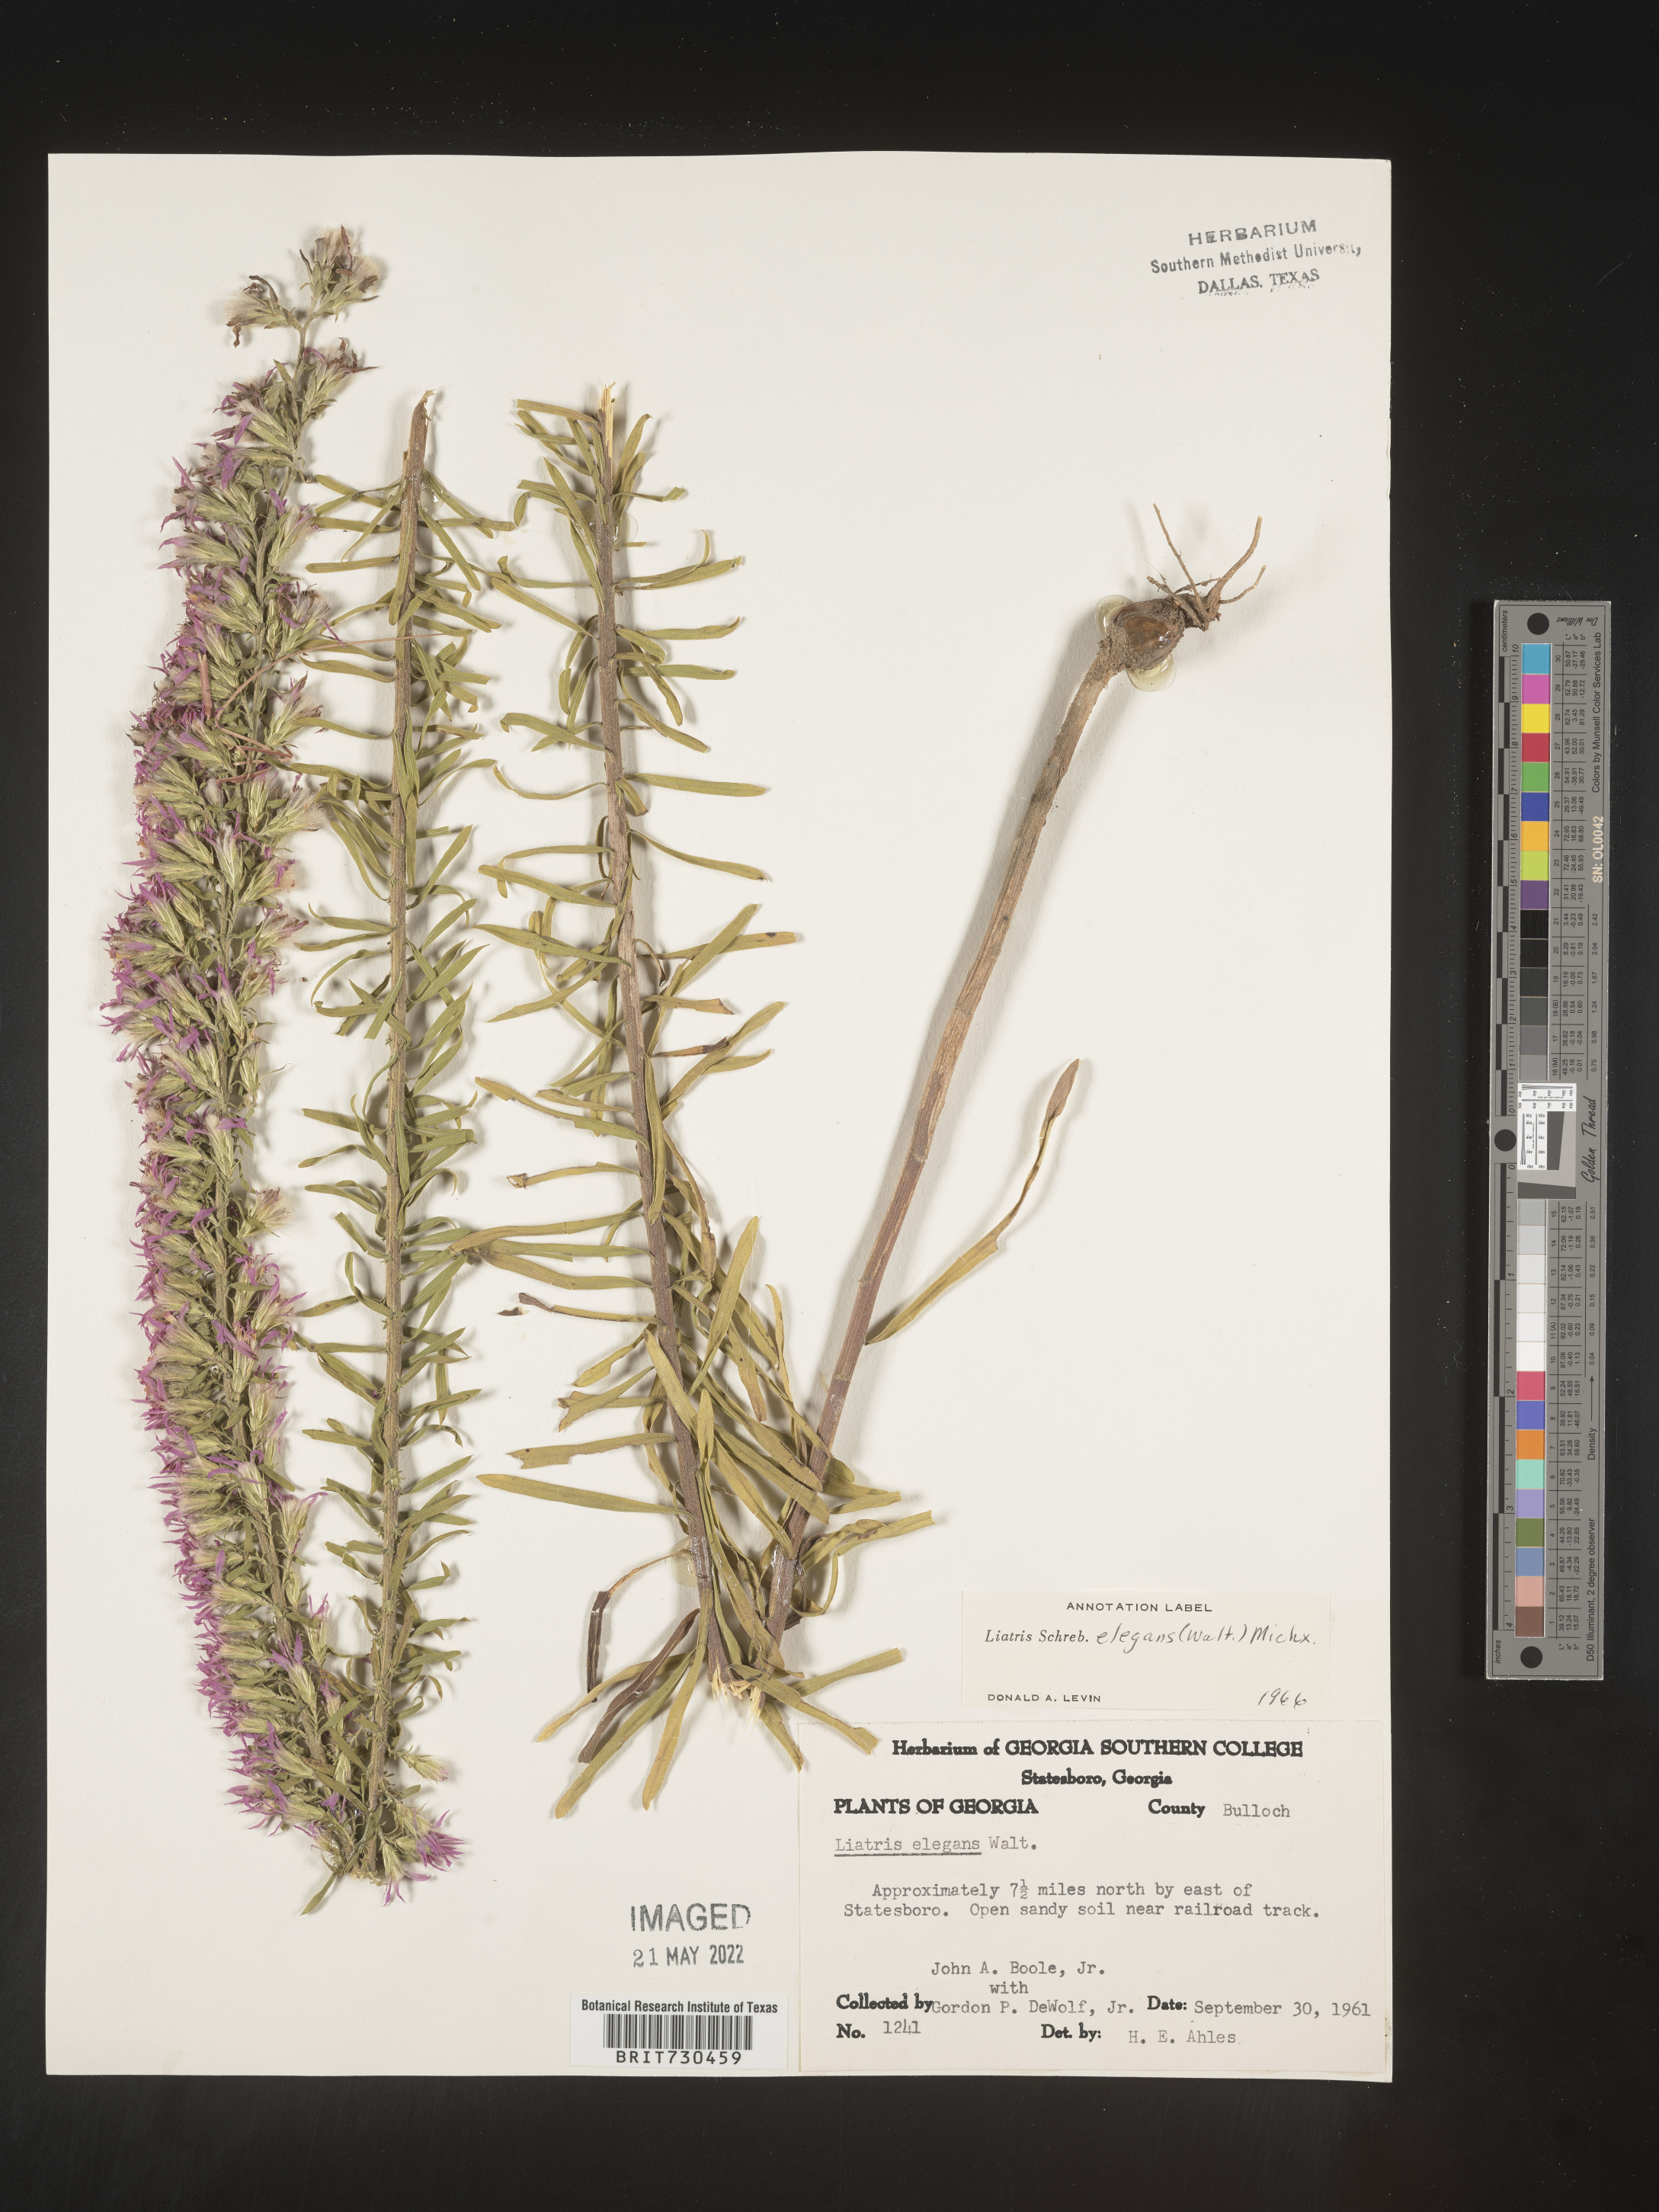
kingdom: Plantae
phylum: Tracheophyta
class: Magnoliopsida
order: Asterales
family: Asteraceae
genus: Liatris
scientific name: Liatris elegans
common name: Pinkscale gayfeather
